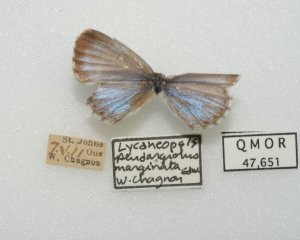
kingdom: Animalia
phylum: Arthropoda
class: Insecta
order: Lepidoptera
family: Lycaenidae
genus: Celastrina
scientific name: Celastrina lucia
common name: Northern Spring Azure
